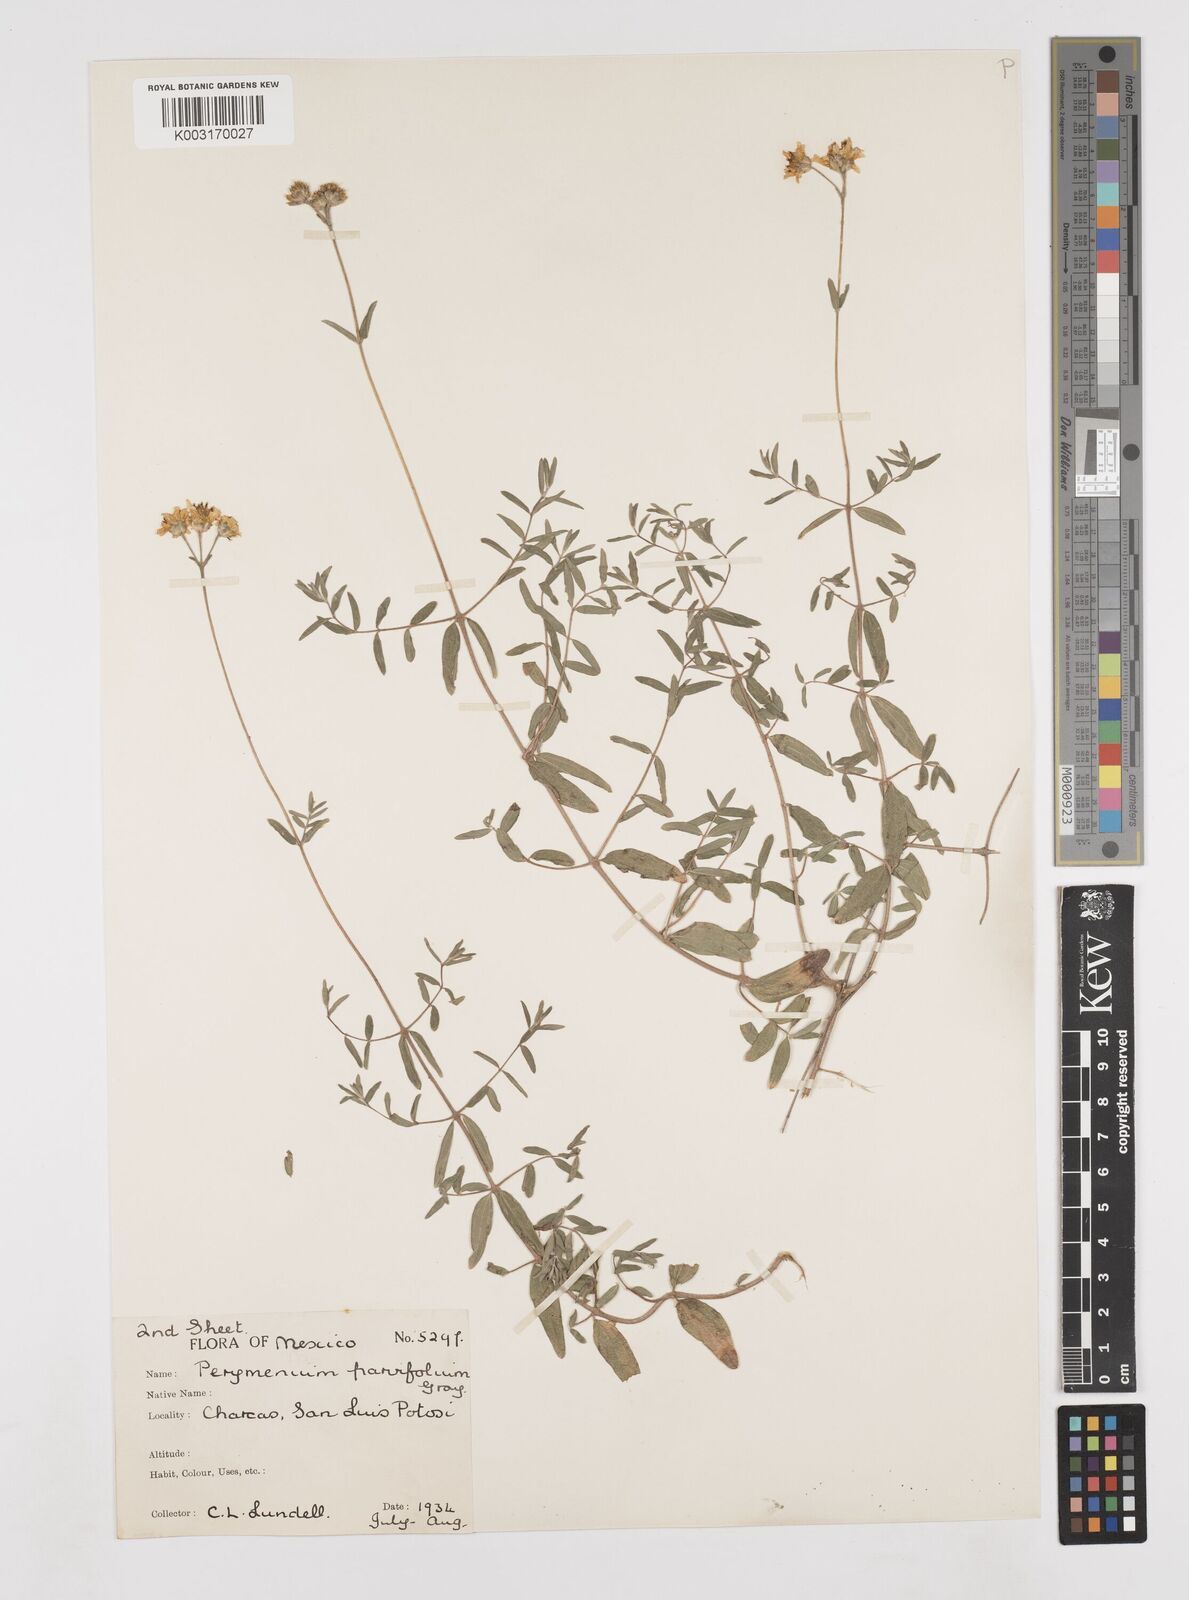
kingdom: Plantae
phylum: Tracheophyta
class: Magnoliopsida
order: Asterales
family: Asteraceae
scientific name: Asteraceae
